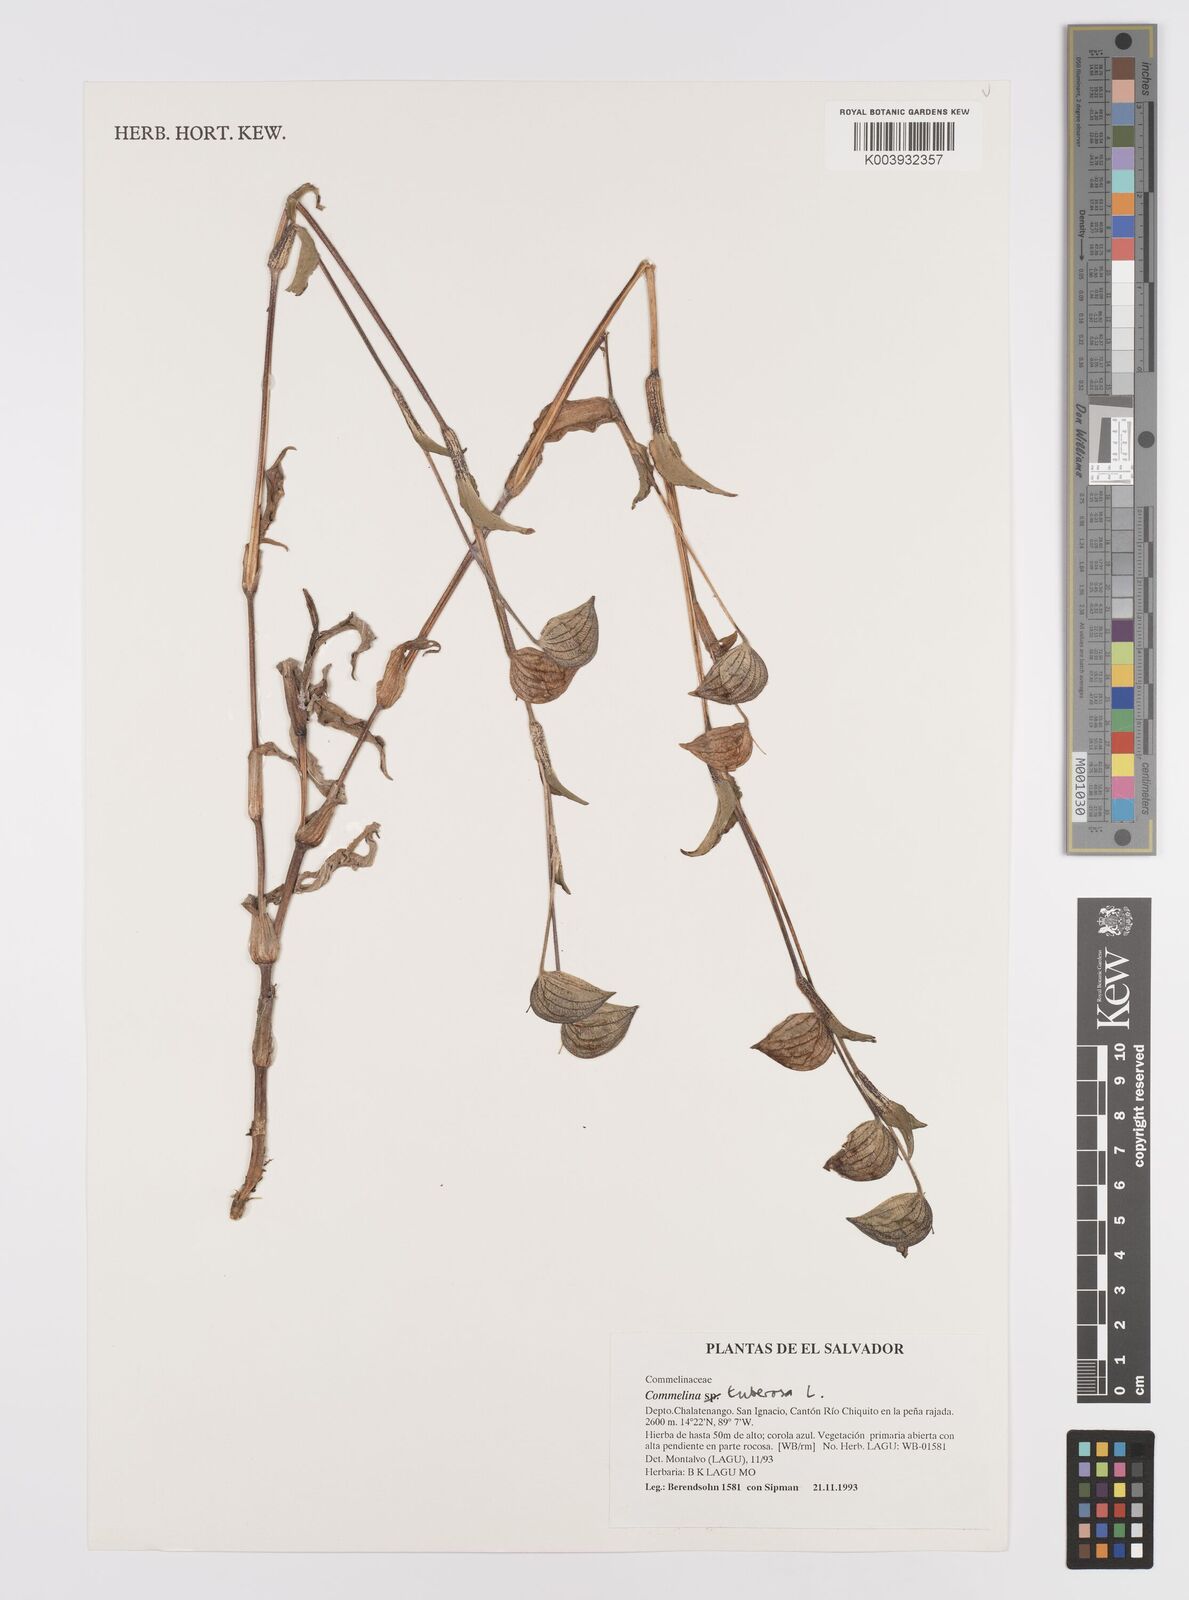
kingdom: Plantae
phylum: Tracheophyta
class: Liliopsida
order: Commelinales
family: Commelinaceae
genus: Commelina
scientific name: Commelina tuberosa
